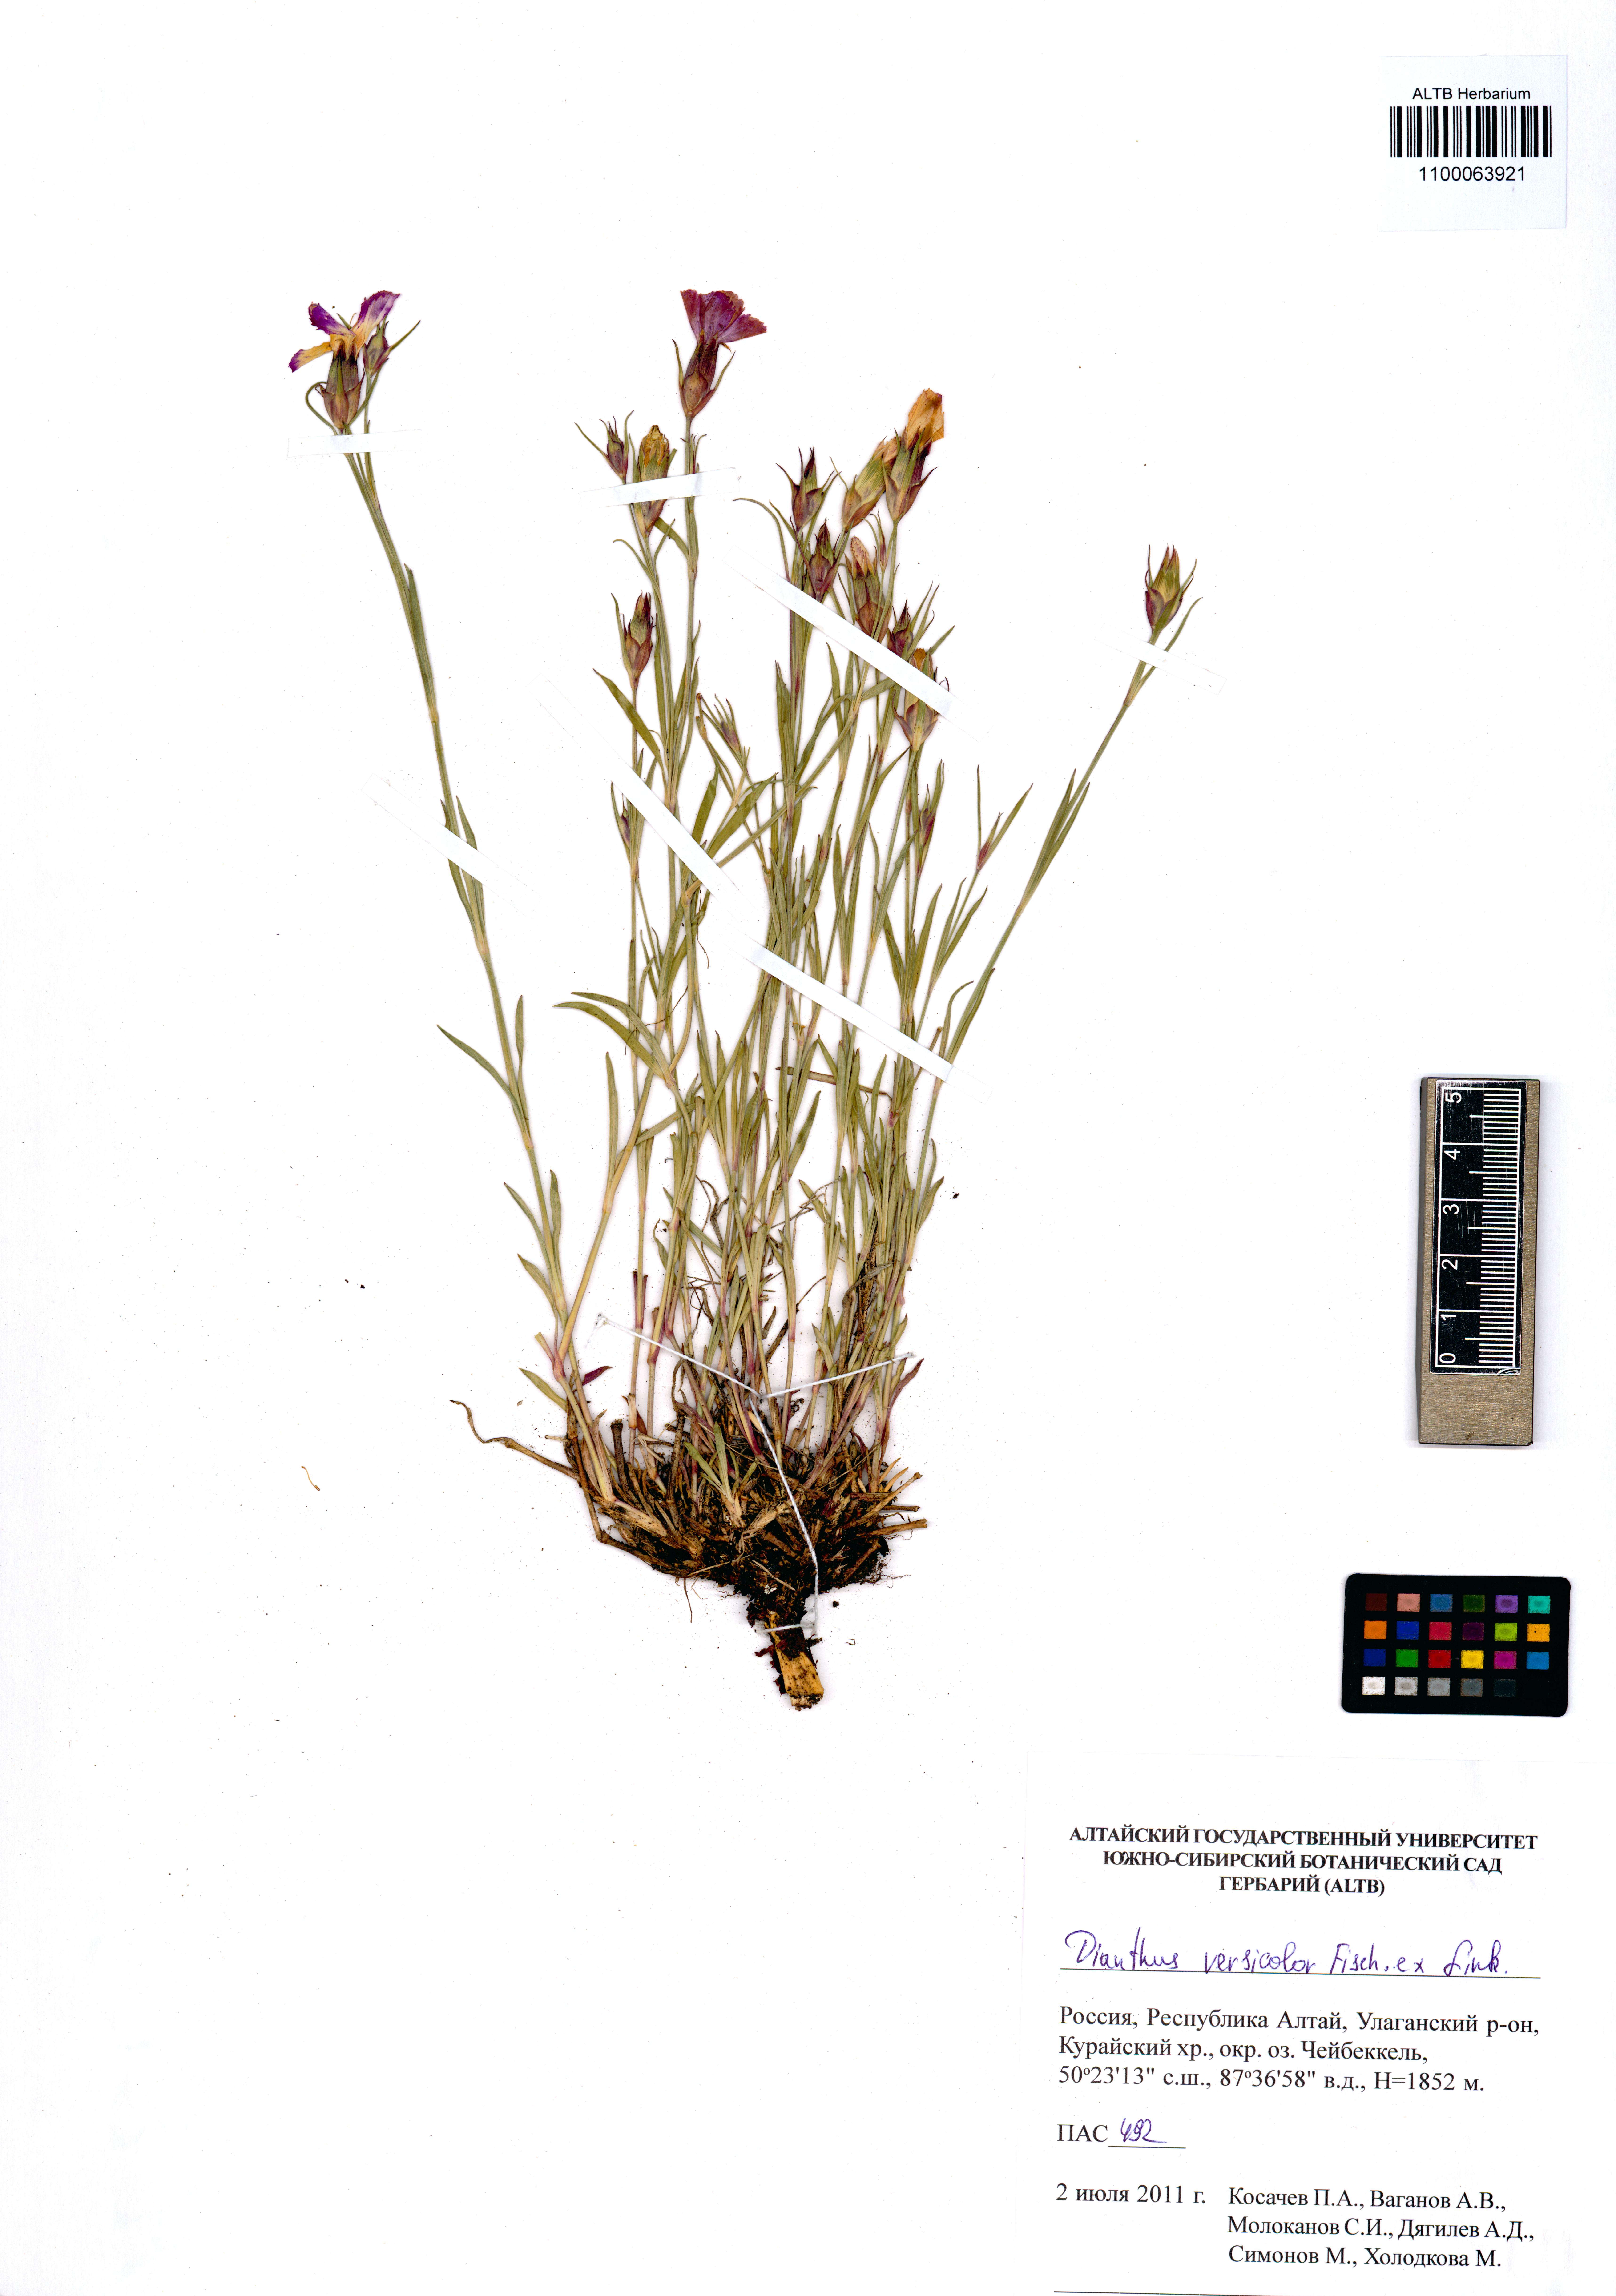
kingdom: Plantae
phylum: Tracheophyta
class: Magnoliopsida
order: Caryophyllales
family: Caryophyllaceae
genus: Dianthus
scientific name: Dianthus chinensis
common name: Rainbow pink
